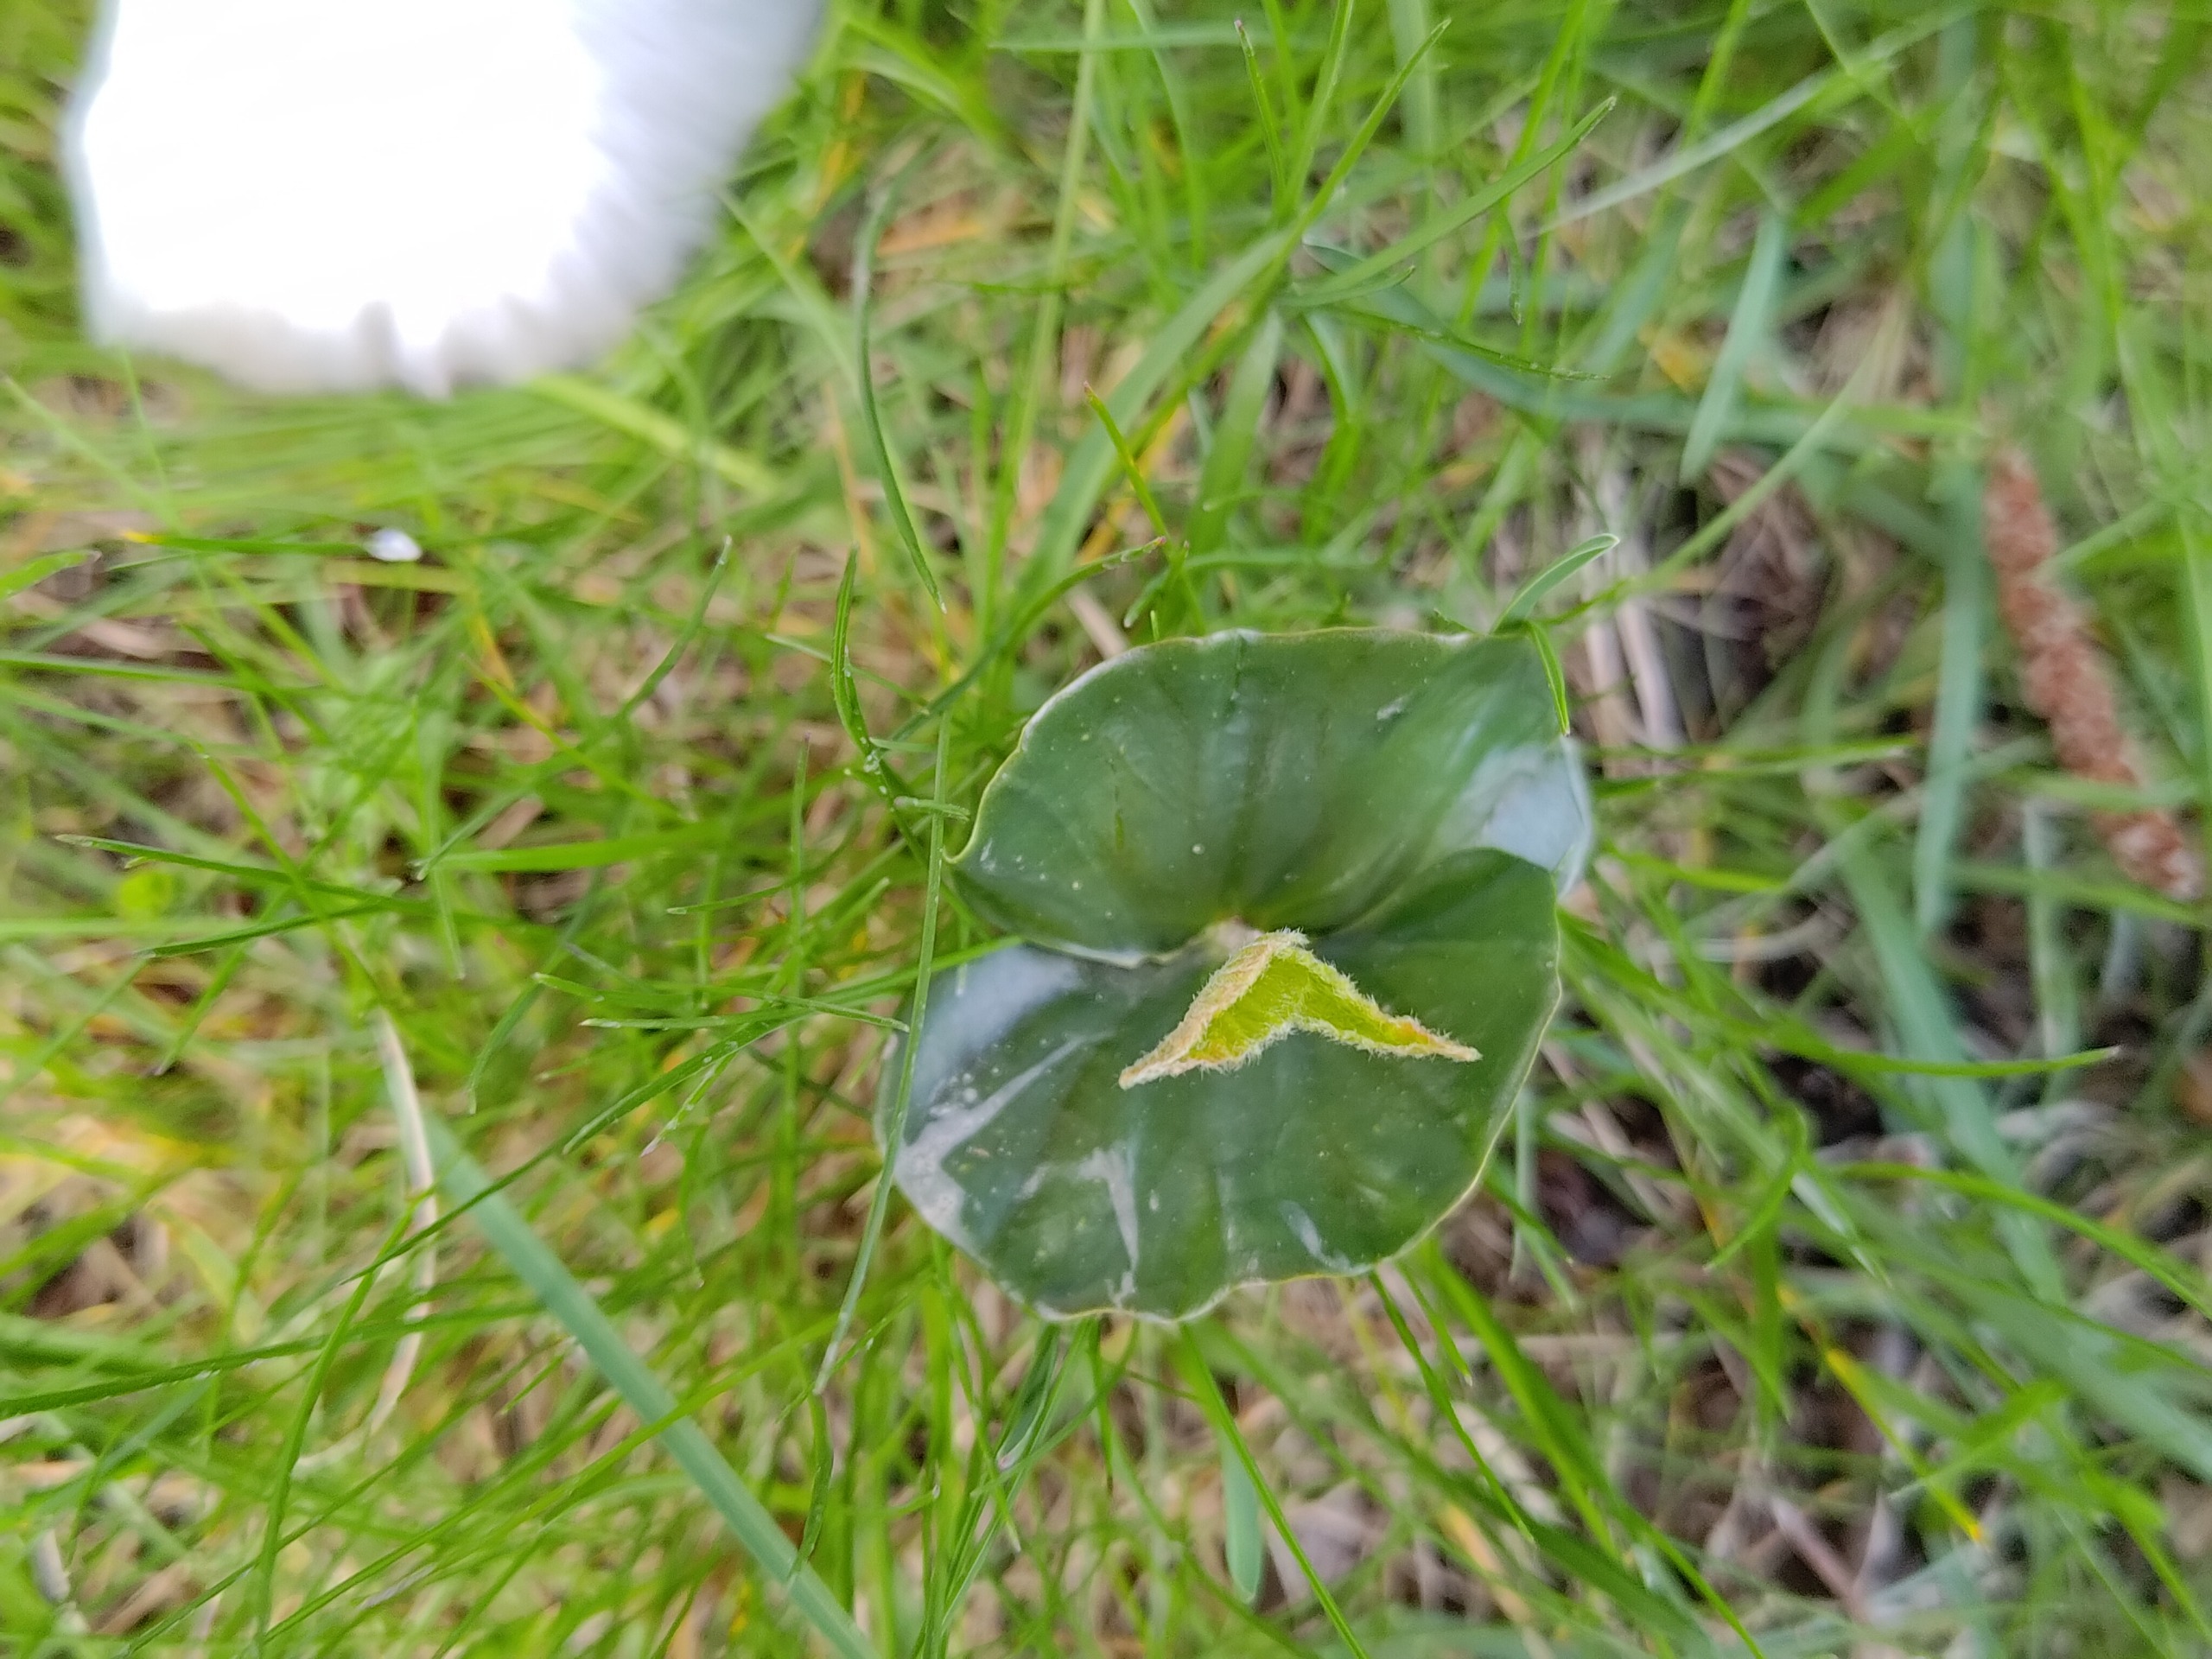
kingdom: Plantae
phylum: Tracheophyta
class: Magnoliopsida
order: Fagales
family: Fagaceae
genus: Fagus
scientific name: Fagus sylvatica
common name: Bøg
